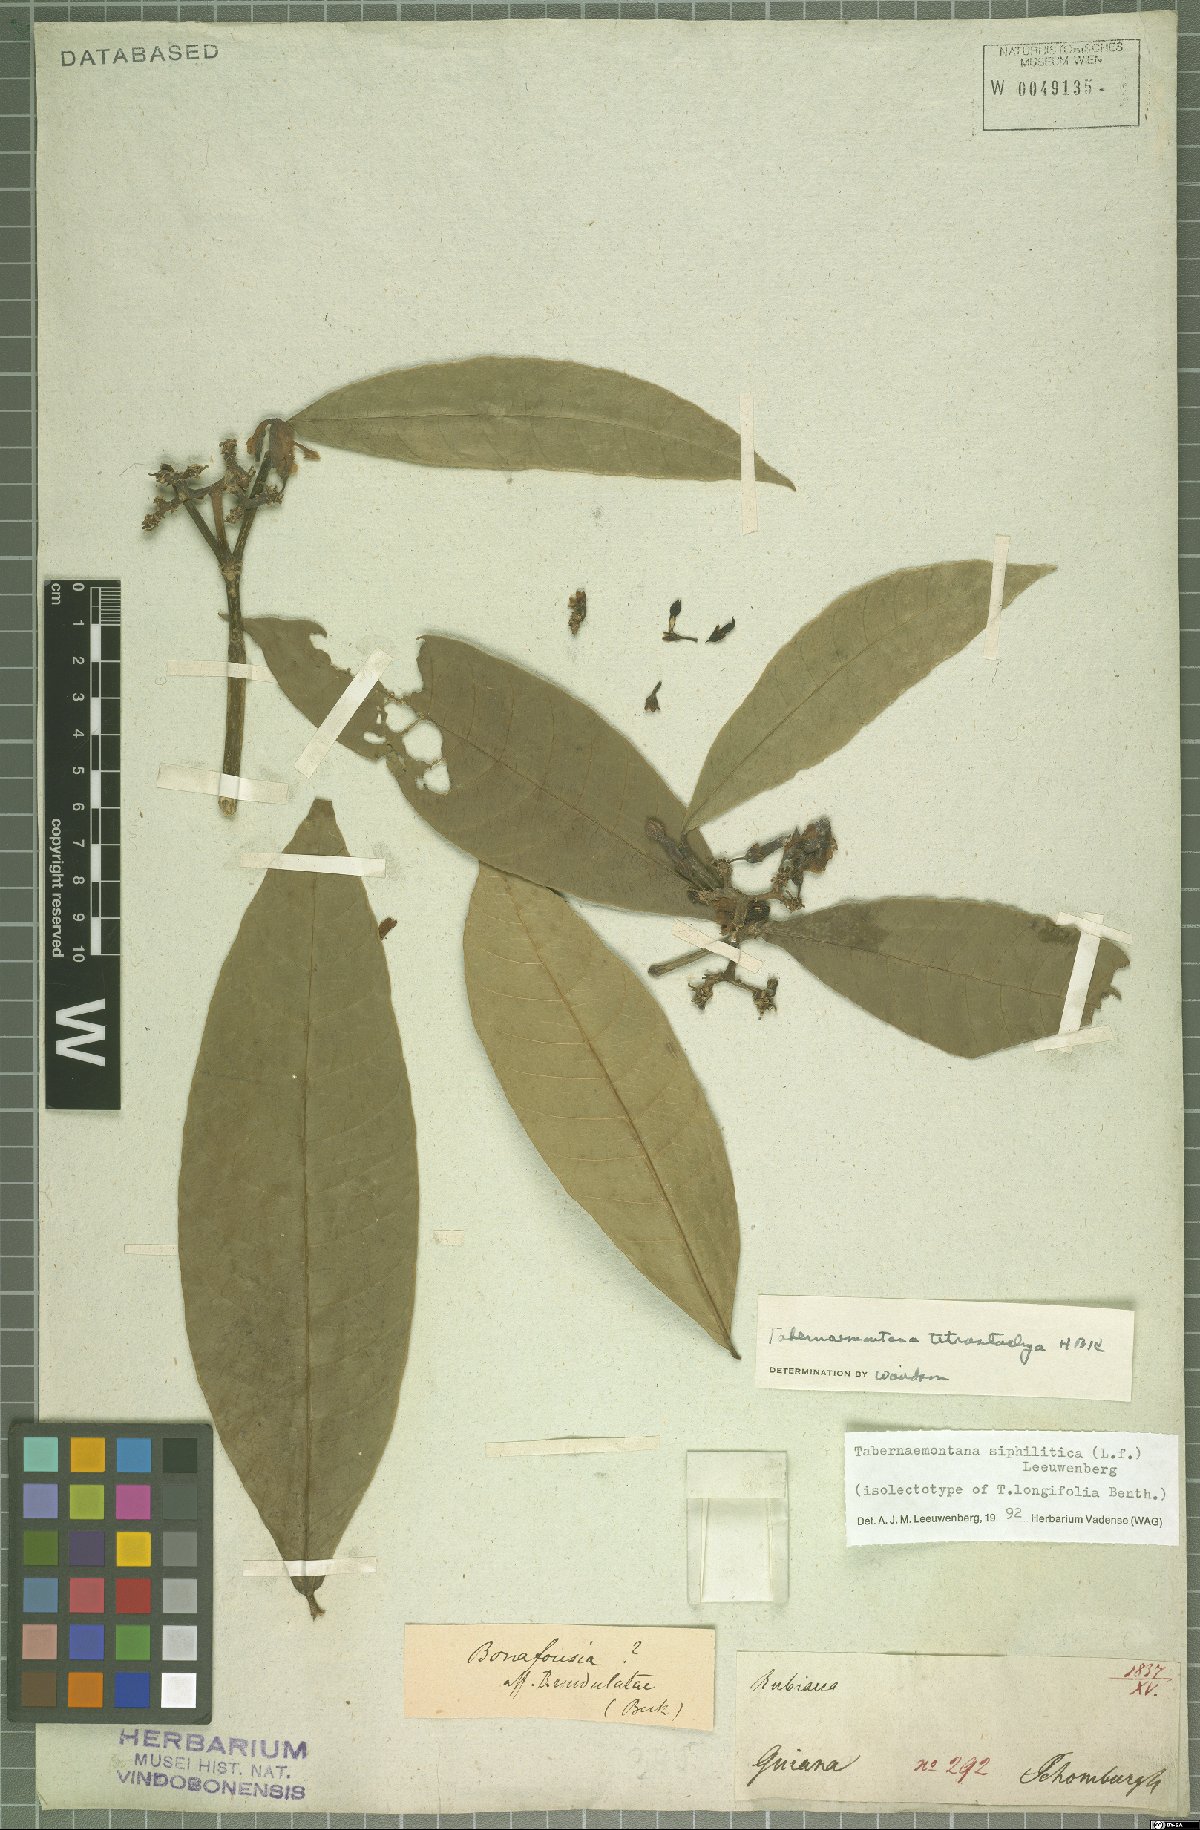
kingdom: Plantae
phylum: Tracheophyta
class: Magnoliopsida
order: Gentianales
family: Apocynaceae
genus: Tabernaemontana
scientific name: Tabernaemontana siphilitica
